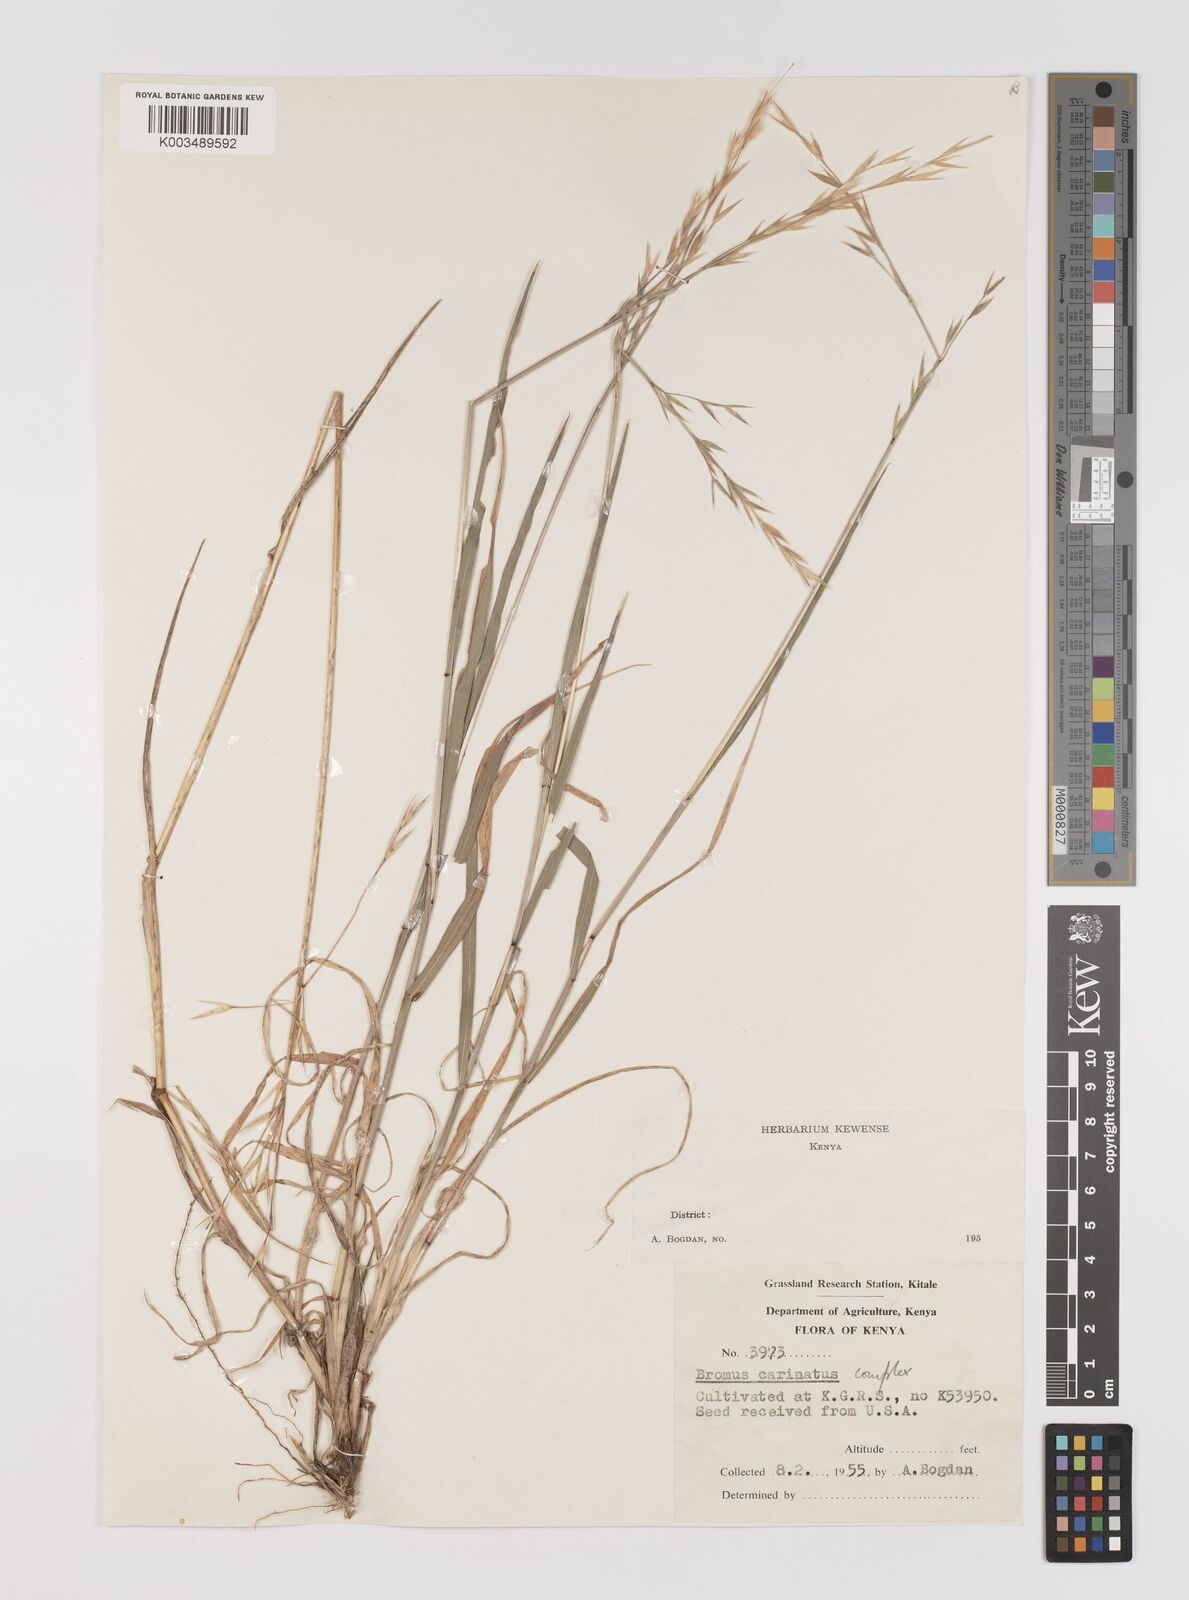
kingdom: Plantae
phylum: Tracheophyta
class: Liliopsida
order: Poales
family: Poaceae
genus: Bromus
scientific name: Bromus carinatus
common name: Mountain brome
